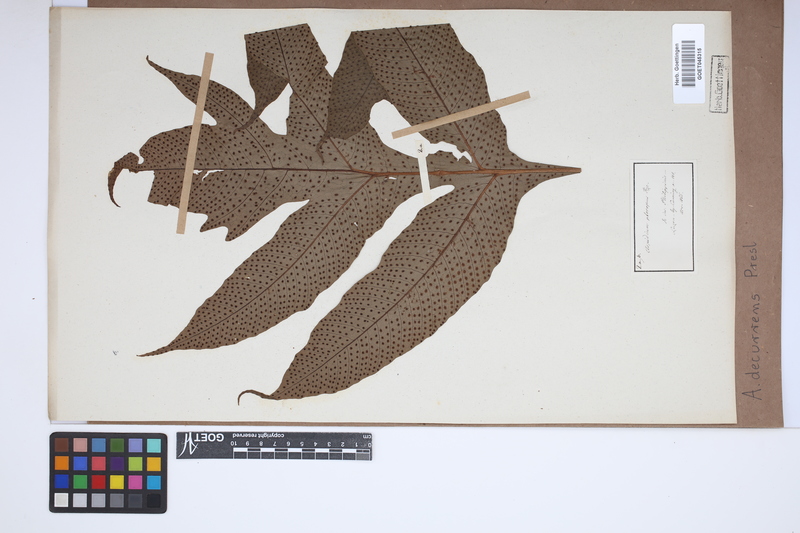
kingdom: Plantae
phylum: Tracheophyta
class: Polypodiopsida
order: Polypodiales
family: Tectariaceae
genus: Tectaria
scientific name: Tectaria decurrens
